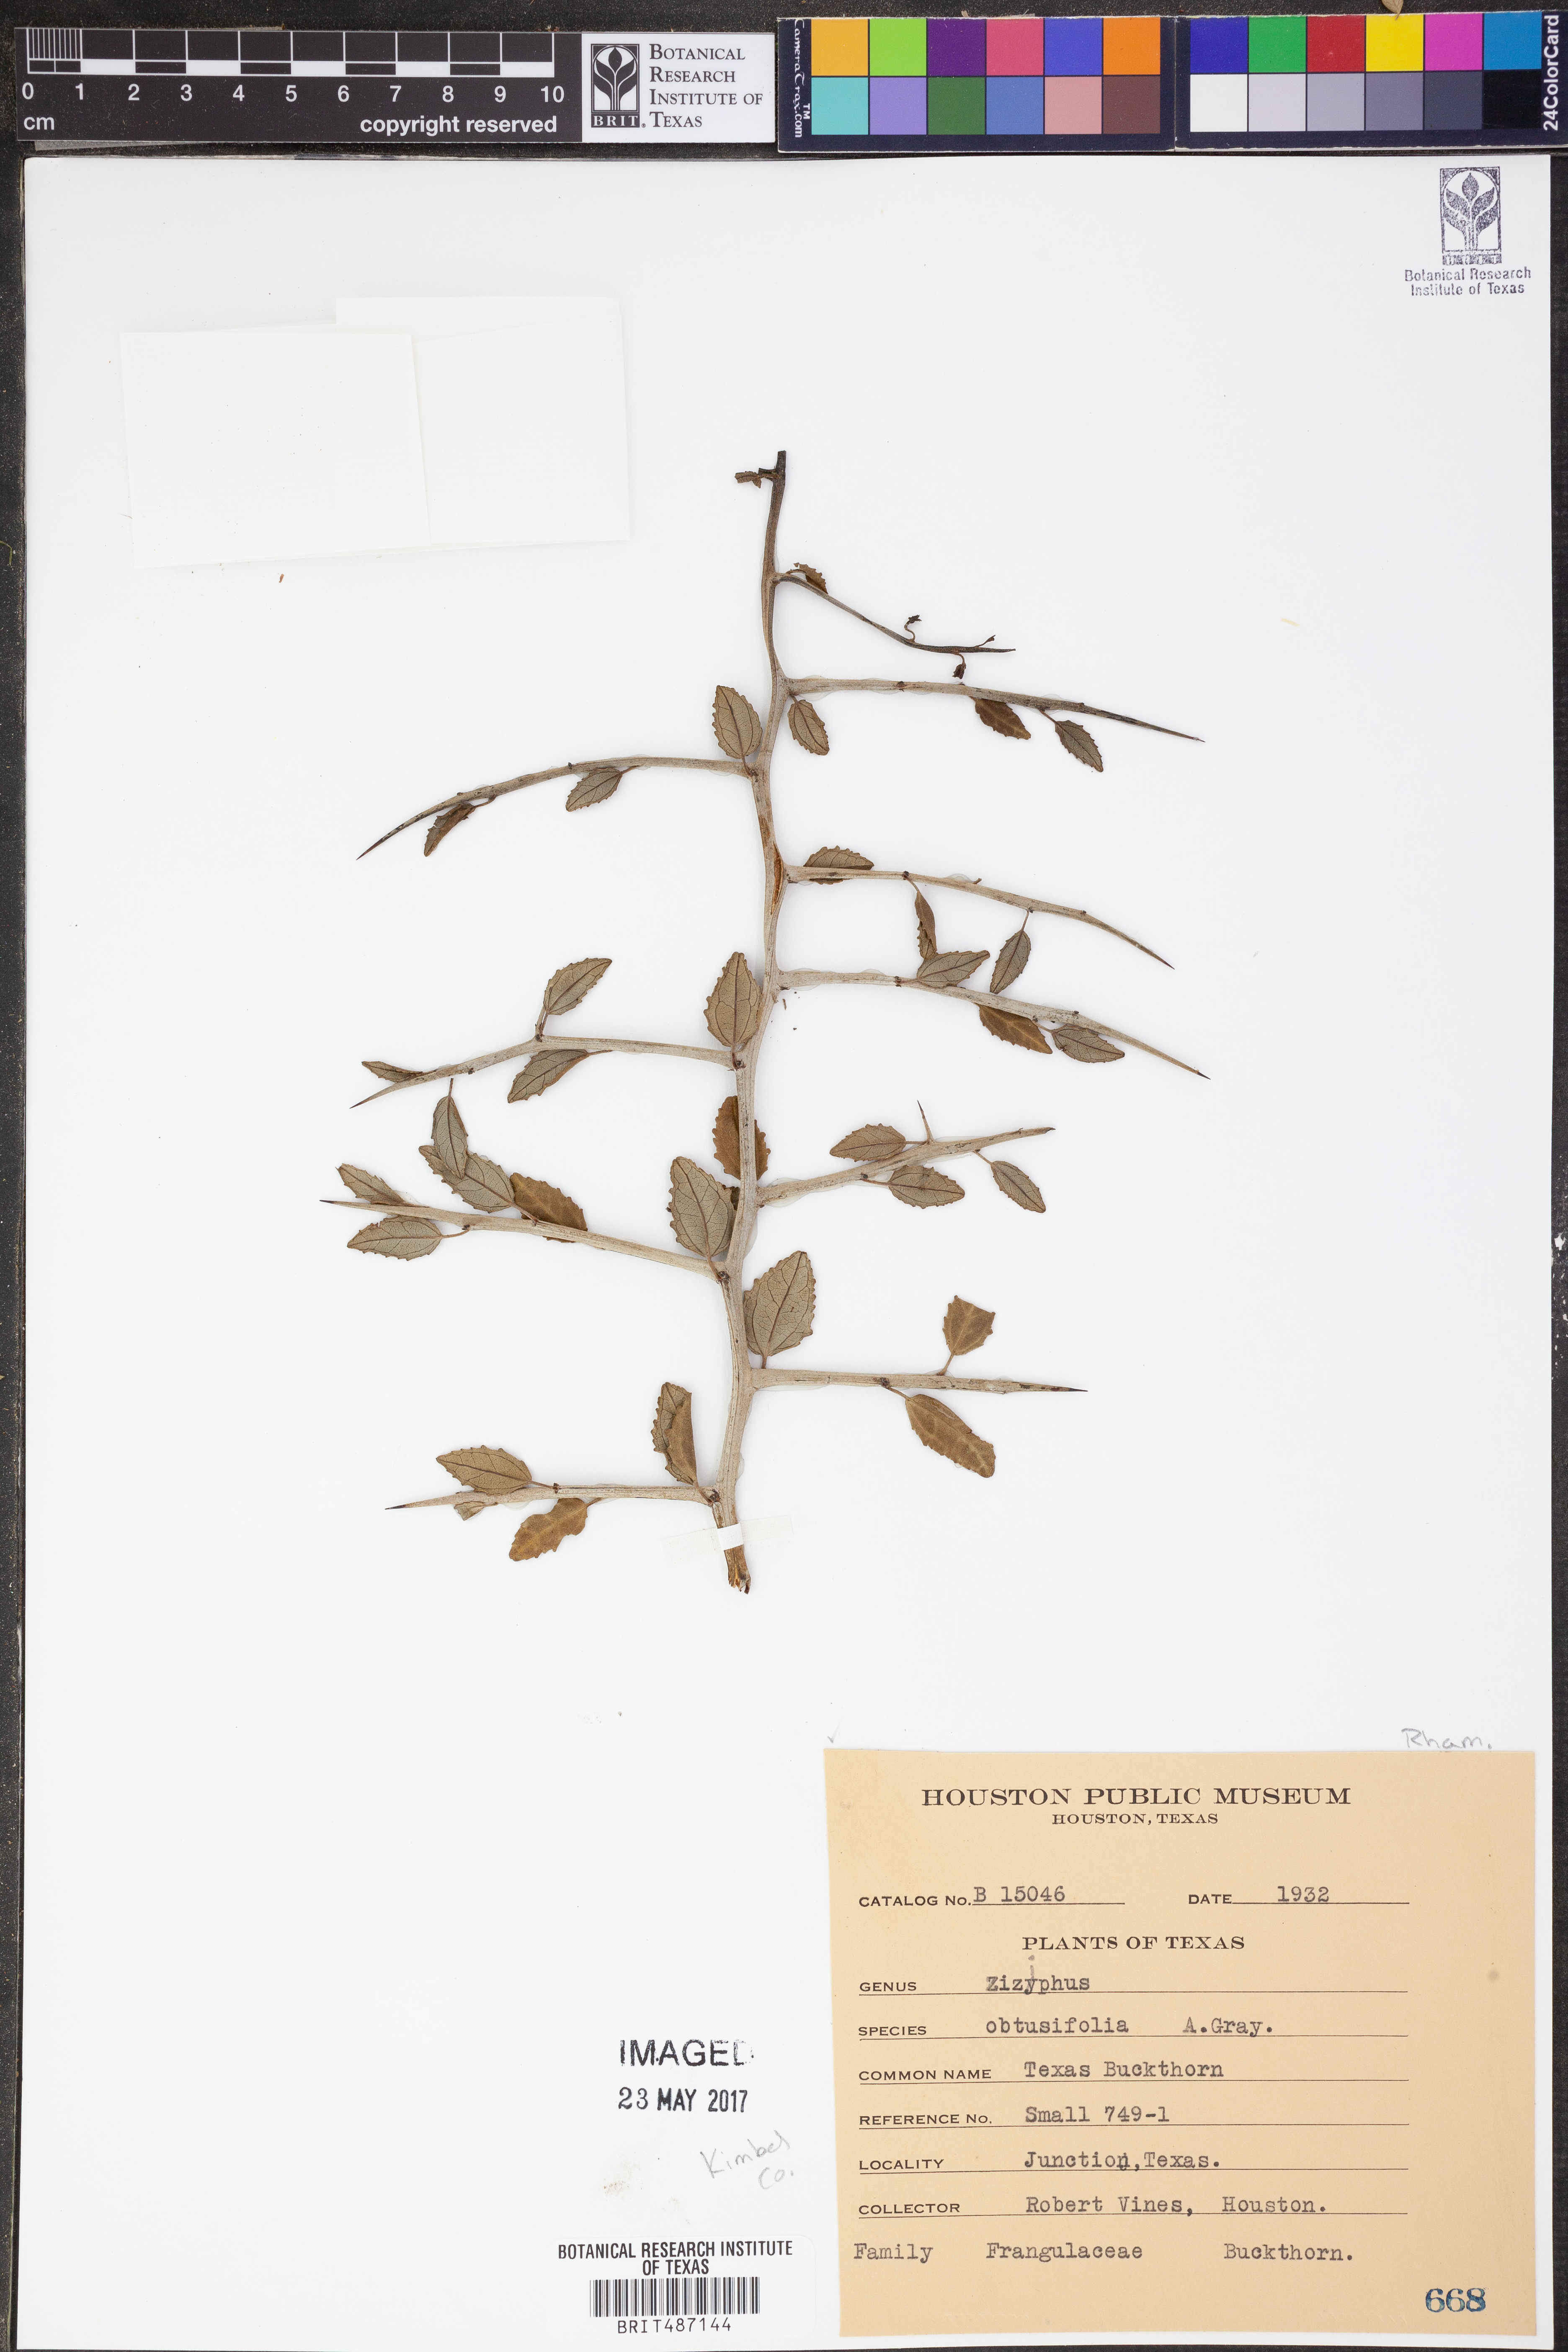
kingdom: Plantae
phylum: Tracheophyta
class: Magnoliopsida
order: Rosales
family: Rhamnaceae
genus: Sarcomphalus
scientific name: Sarcomphalus obtusifolius
